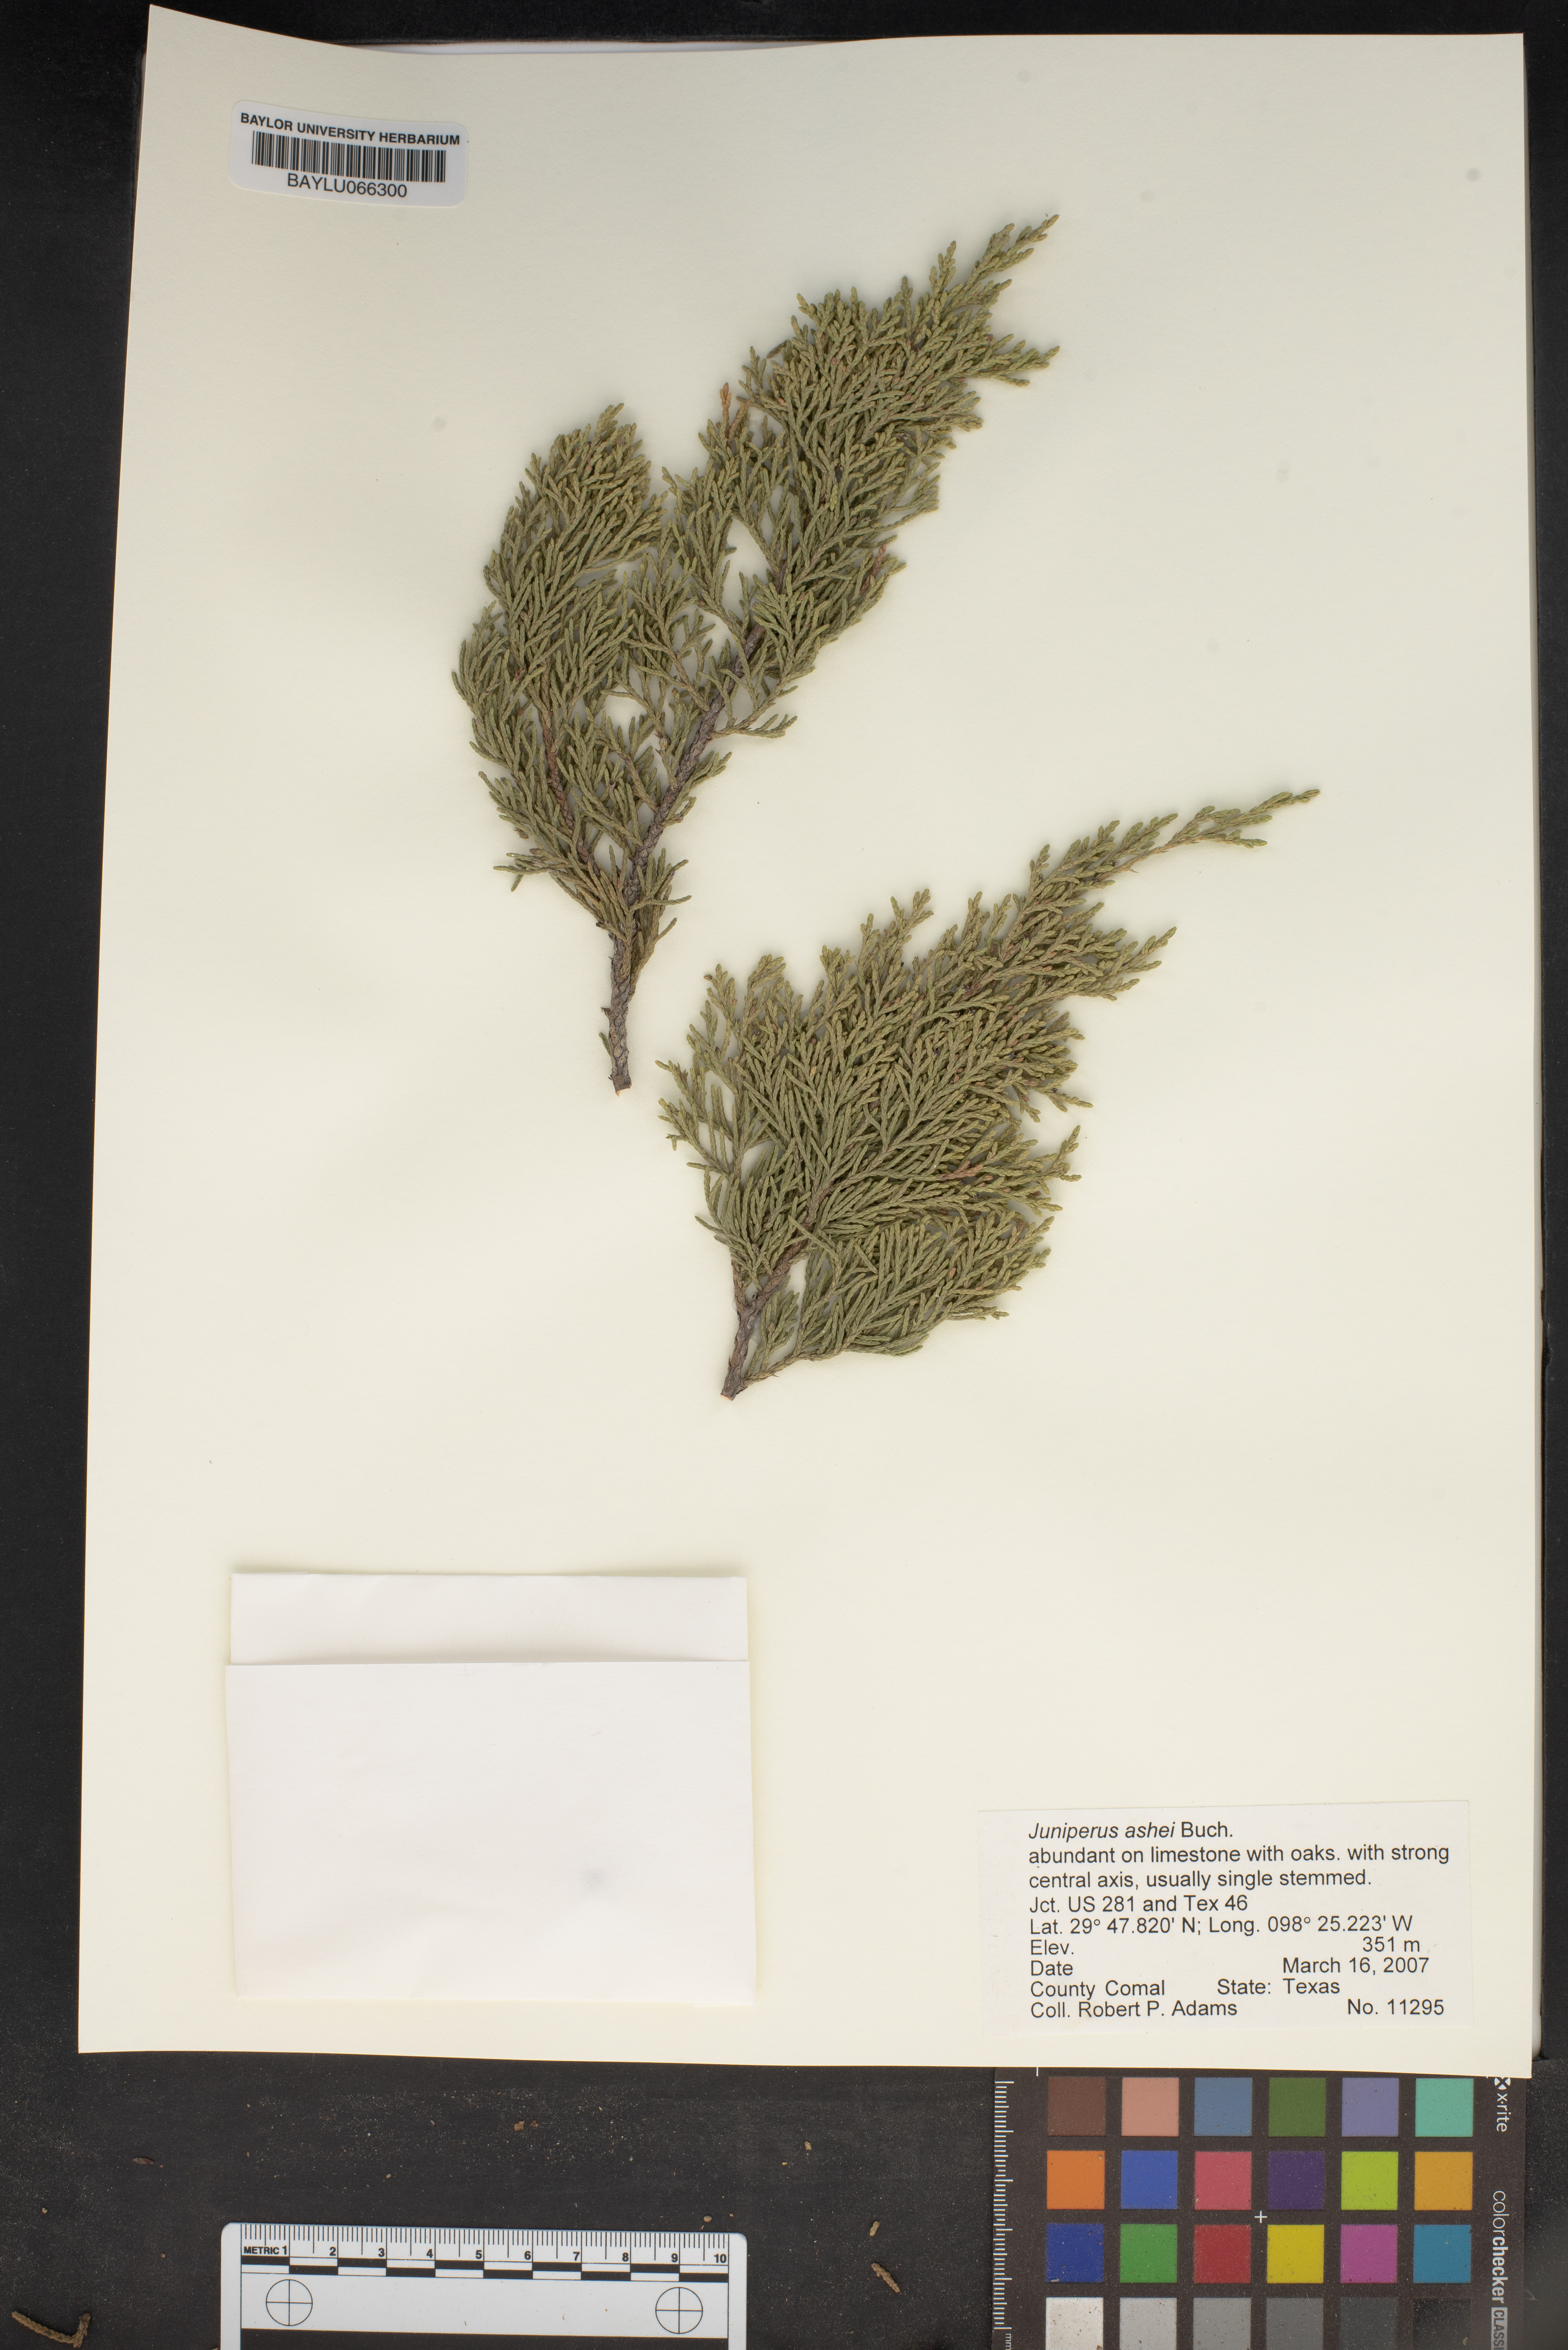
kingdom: Plantae
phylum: Tracheophyta
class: Pinopsida
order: Pinales
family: Cupressaceae
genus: Juniperus
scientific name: Juniperus ashei
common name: Mexican juniper
